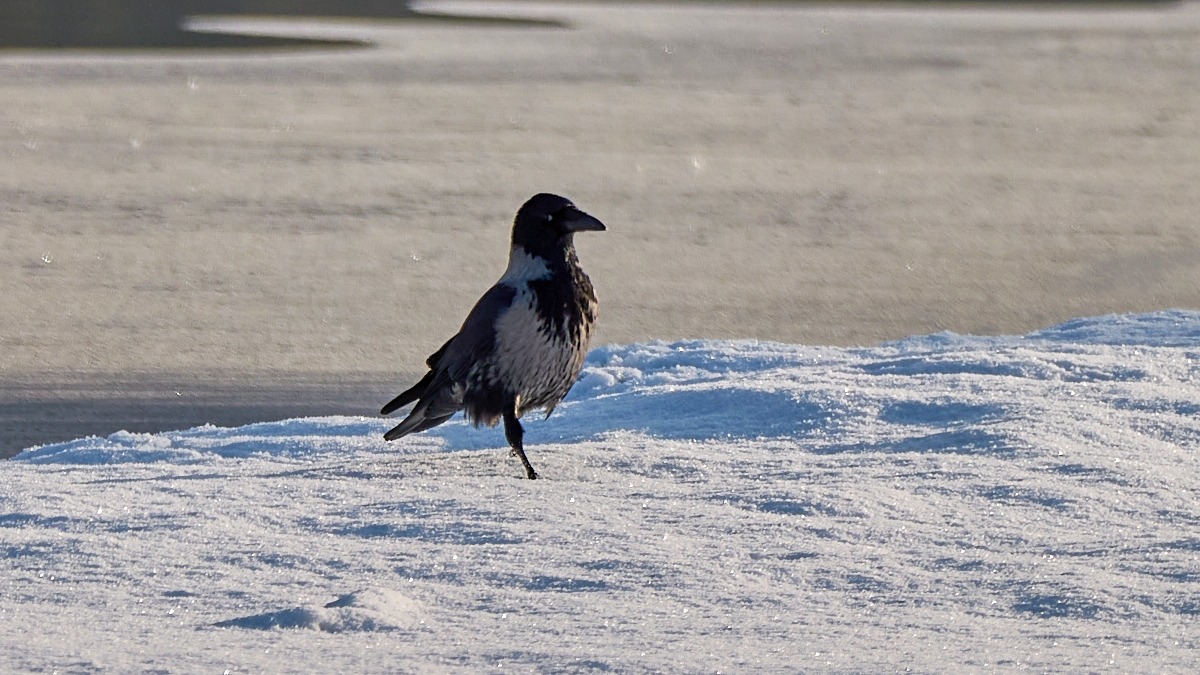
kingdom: Animalia
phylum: Chordata
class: Aves
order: Passeriformes
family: Corvidae
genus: Corvus
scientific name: Corvus cornix
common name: Gråkrage
